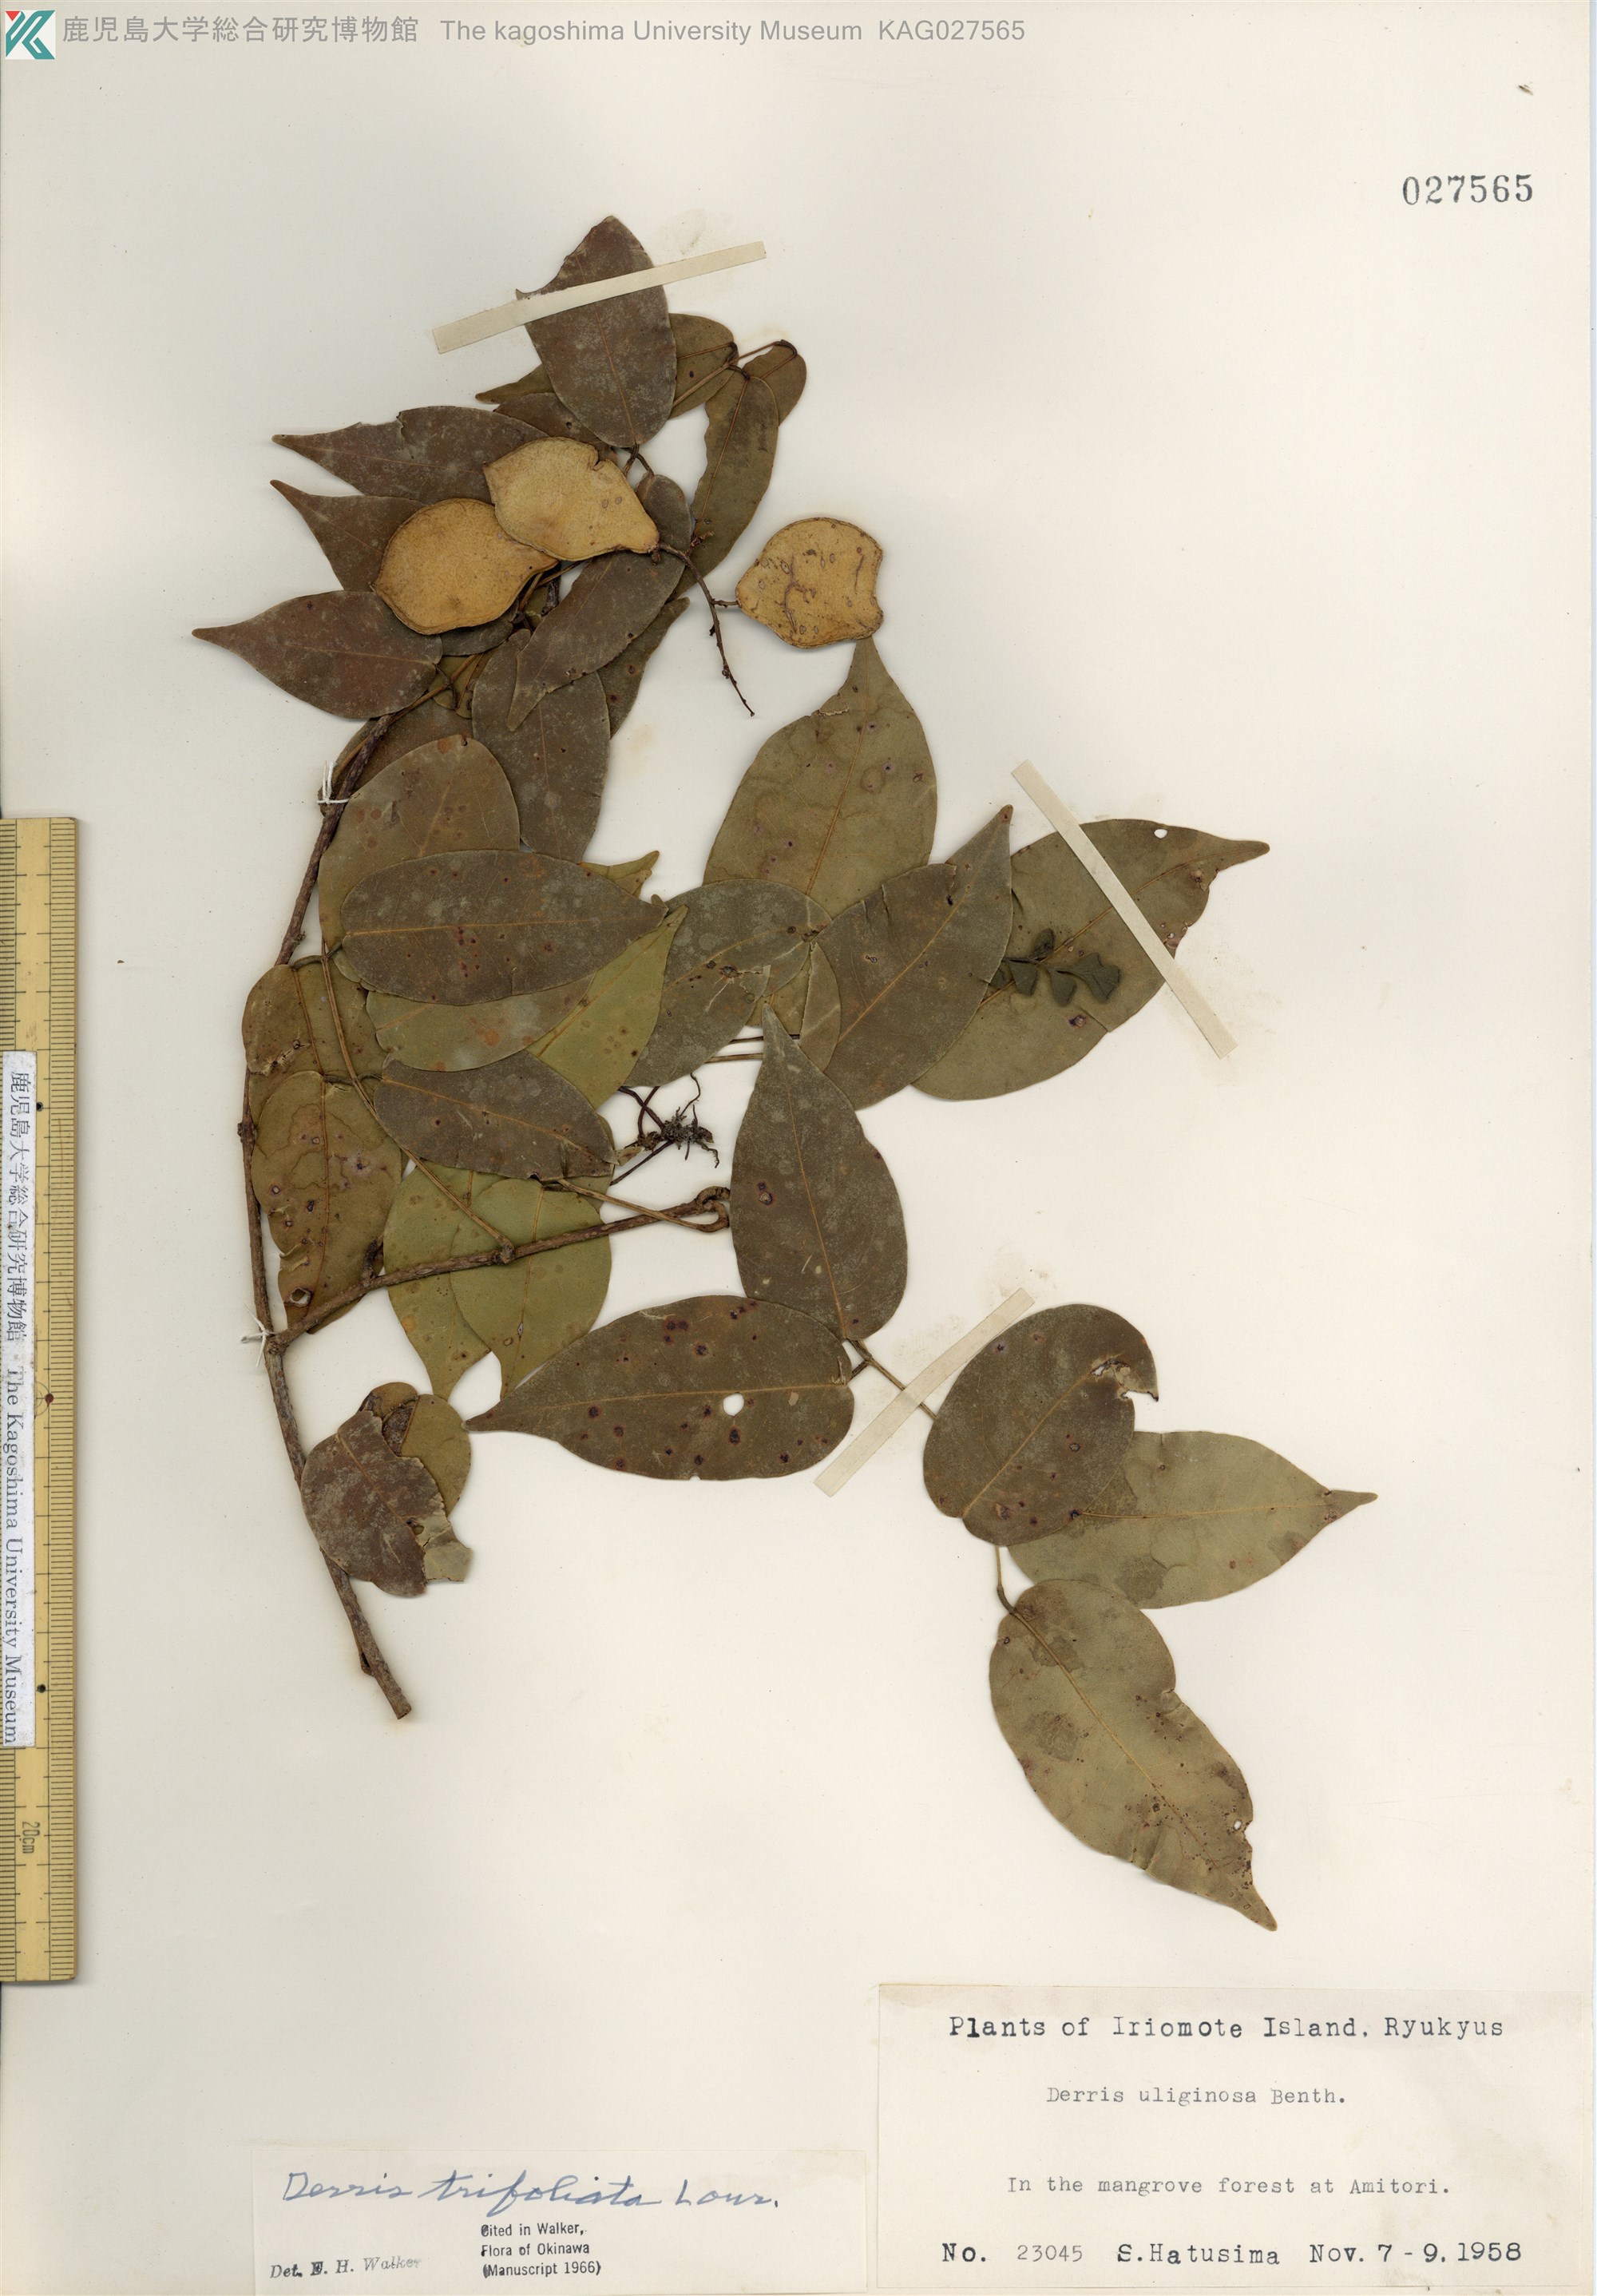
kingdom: Plantae
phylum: Tracheophyta
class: Magnoliopsida
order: Fabales
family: Fabaceae
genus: Derris
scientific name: Derris trifoliata
